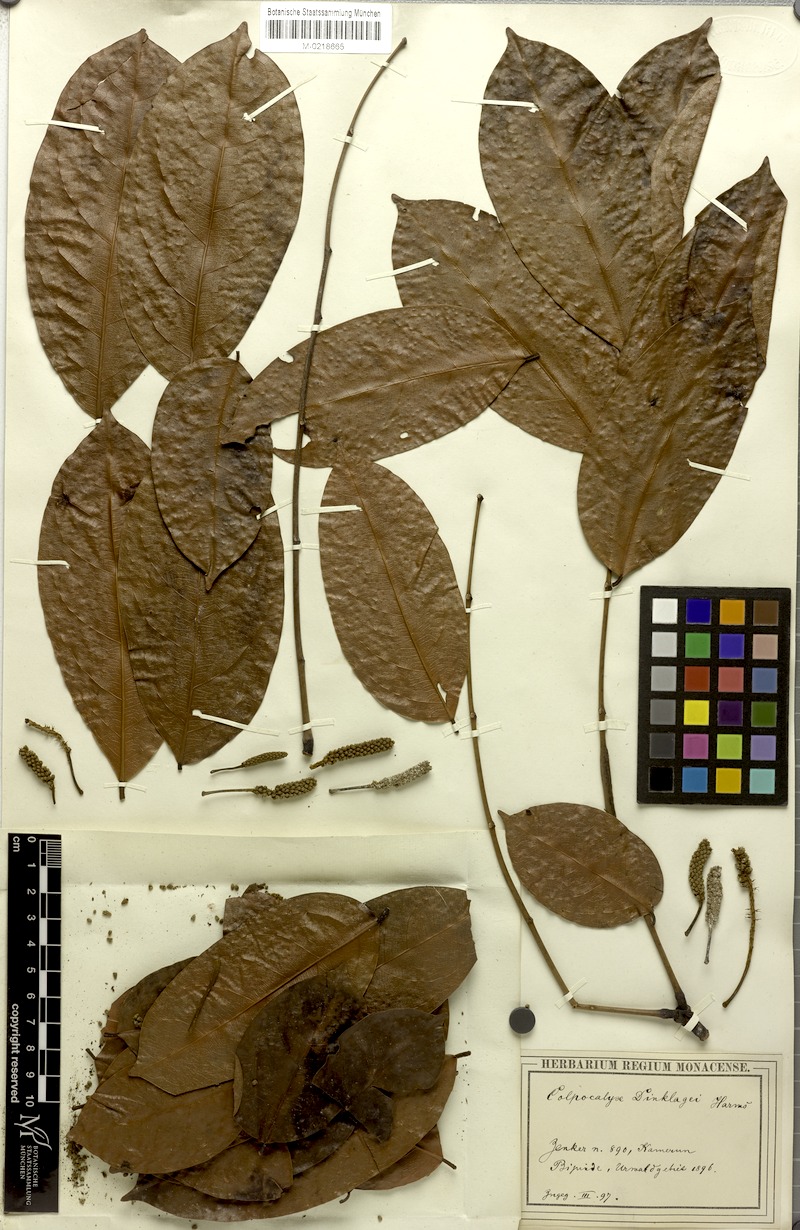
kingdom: Plantae
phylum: Tracheophyta
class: Magnoliopsida
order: Fabales
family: Fabaceae
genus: Calpocalyx
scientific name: Calpocalyx dinklagei
